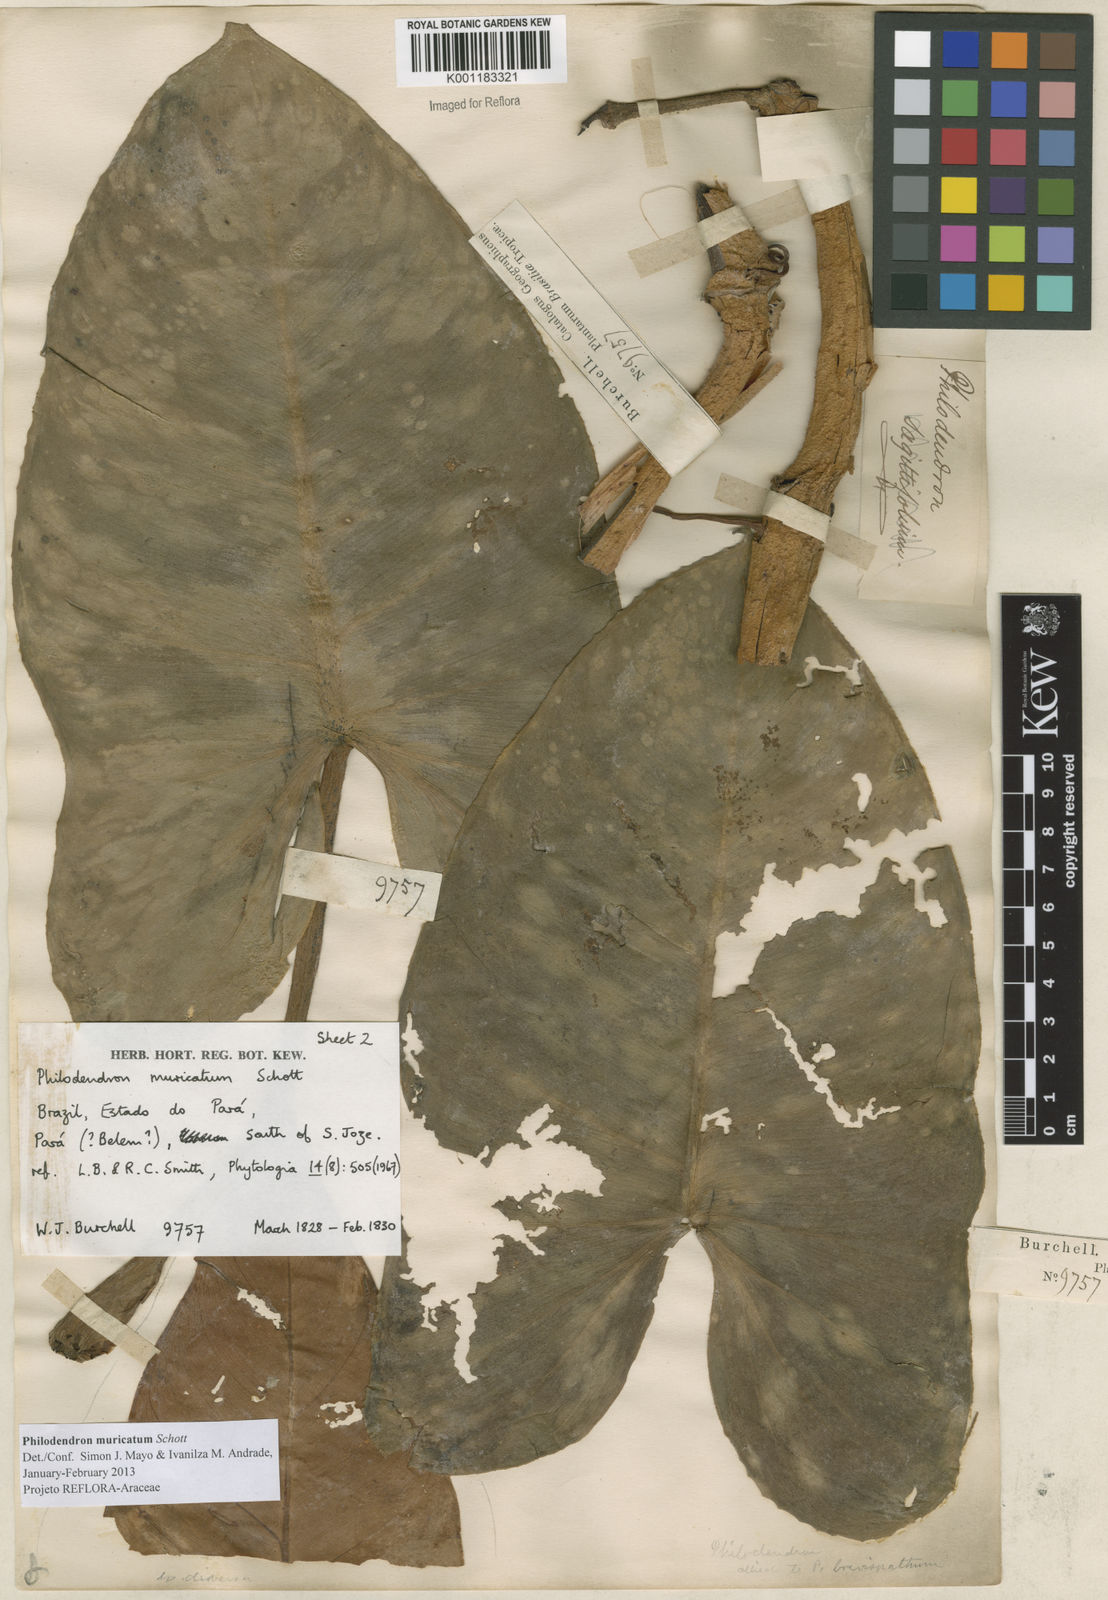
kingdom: Plantae
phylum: Tracheophyta
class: Liliopsida
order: Alismatales
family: Araceae
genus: Philodendron
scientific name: Philodendron muricatum
